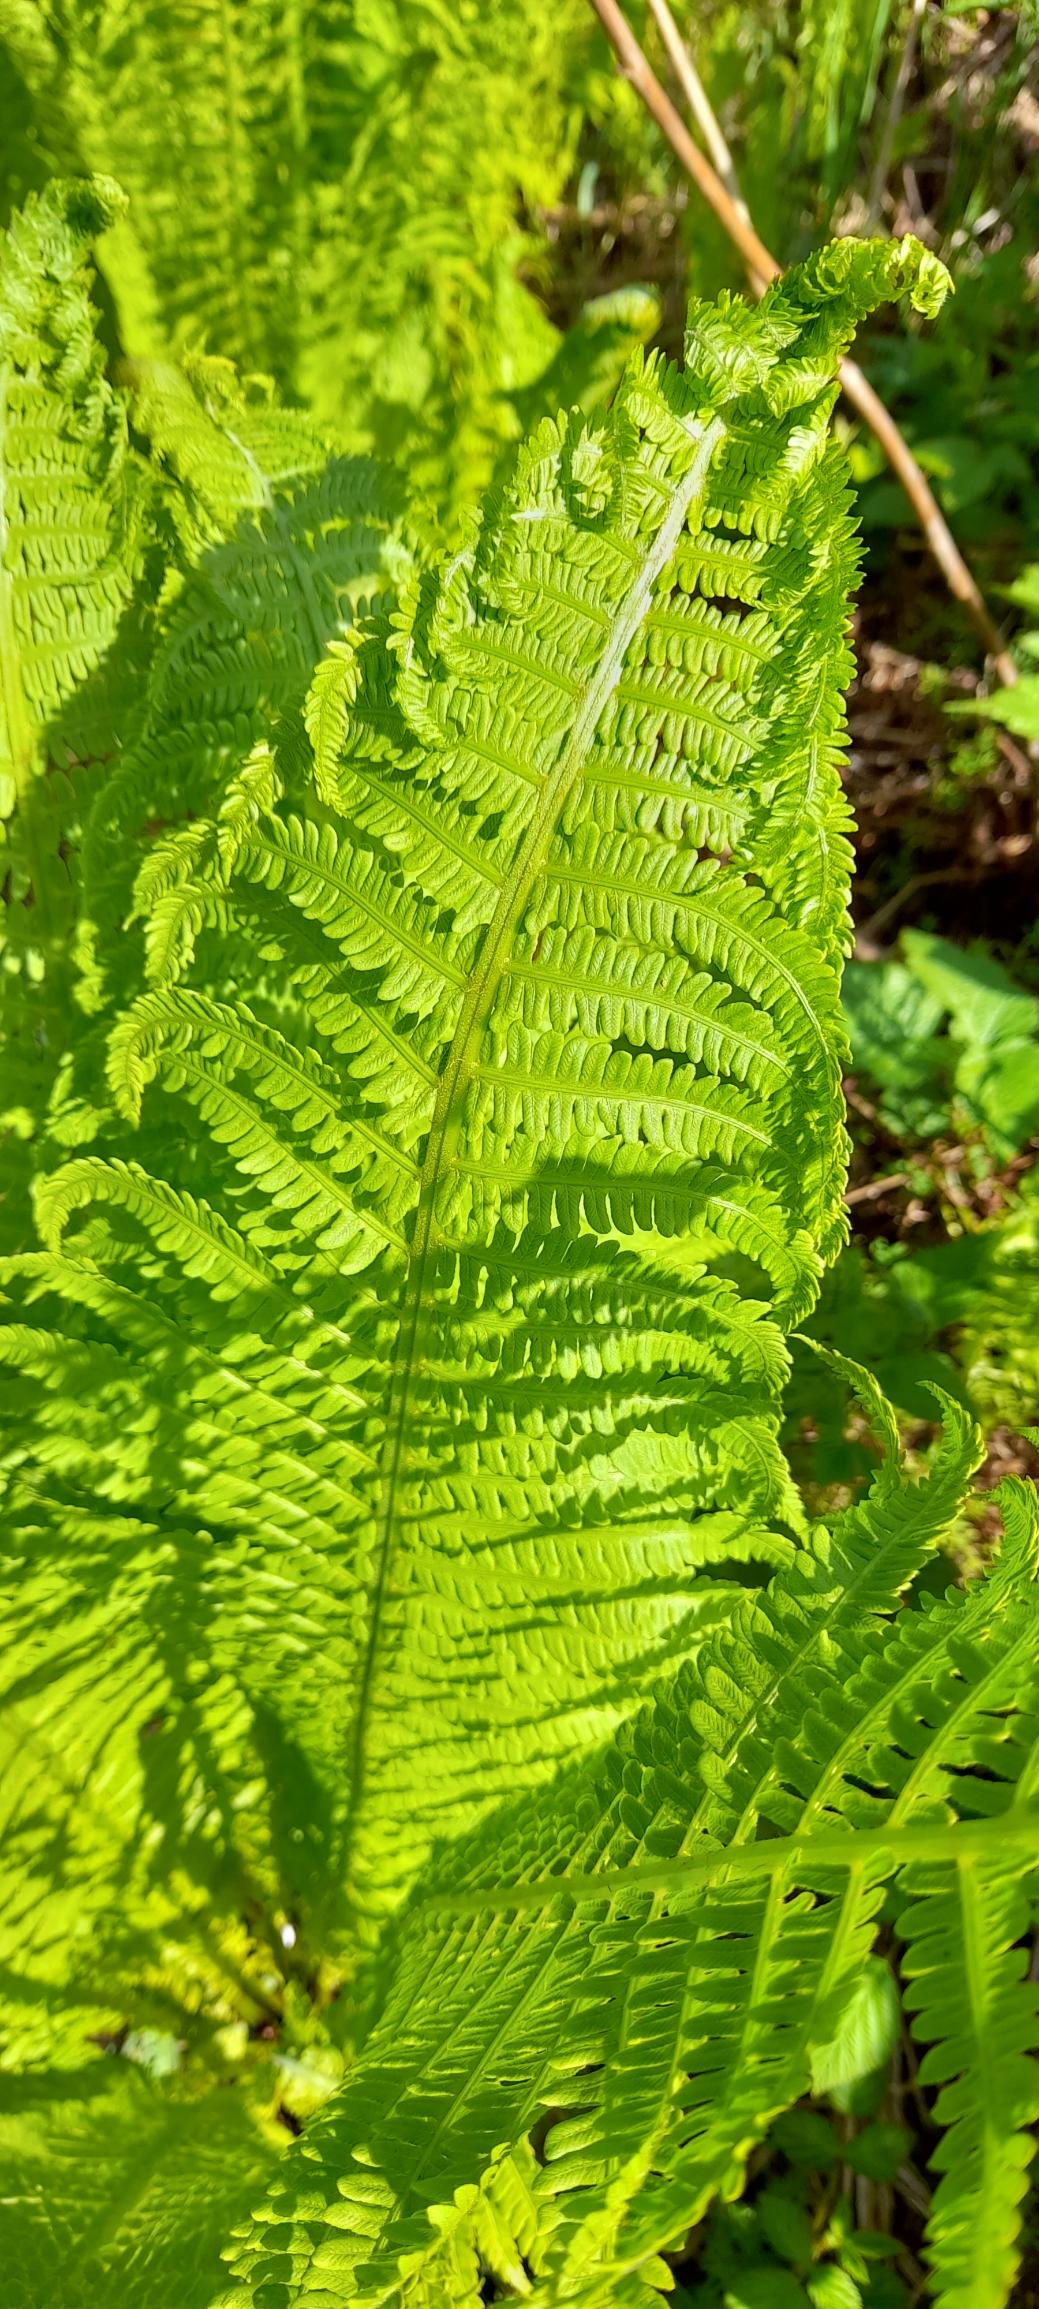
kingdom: Plantae
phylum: Tracheophyta
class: Polypodiopsida
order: Polypodiales
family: Onocleaceae
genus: Matteuccia
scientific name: Matteuccia struthiopteris
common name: Strudsvinge
